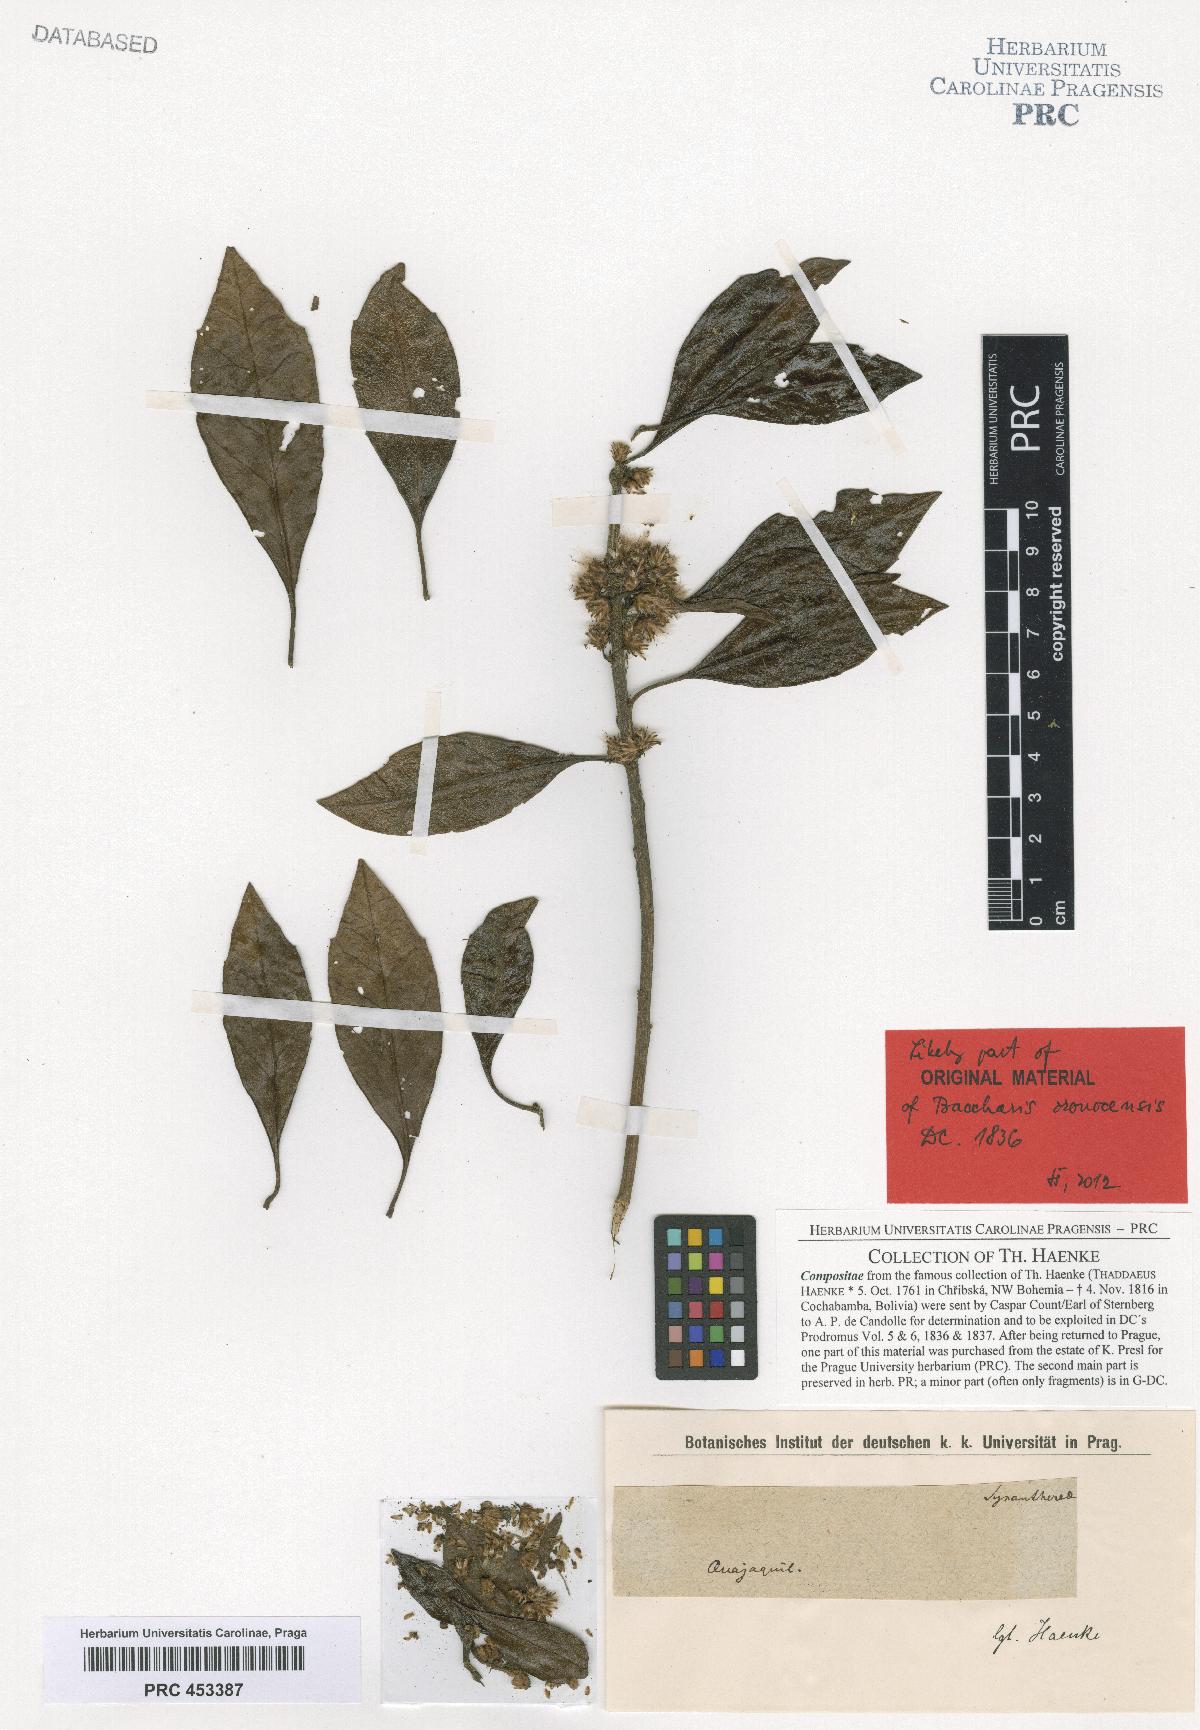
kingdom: Plantae
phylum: Tracheophyta
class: Magnoliopsida
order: Asterales
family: Asteraceae
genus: Baccharis
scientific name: Baccharis nitida
